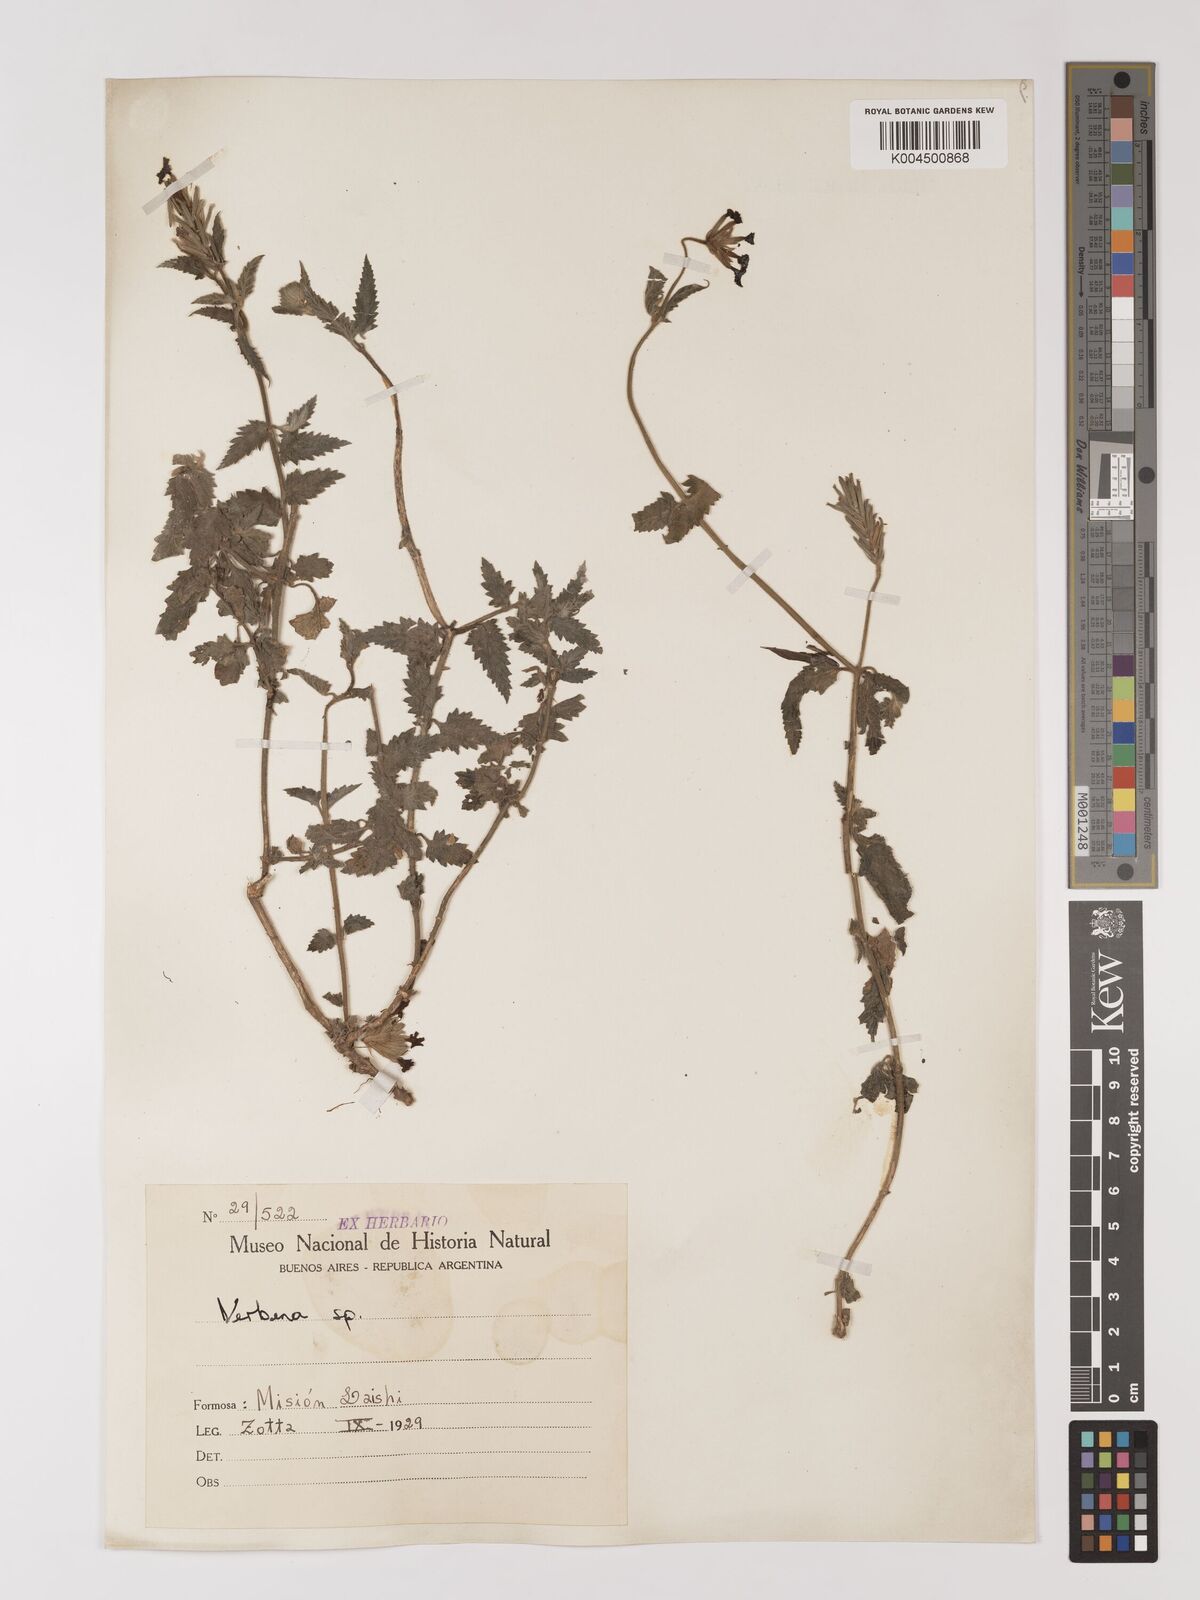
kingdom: Plantae
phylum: Tracheophyta
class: Magnoliopsida
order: Lamiales
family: Verbenaceae
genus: Verbena
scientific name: Verbena
